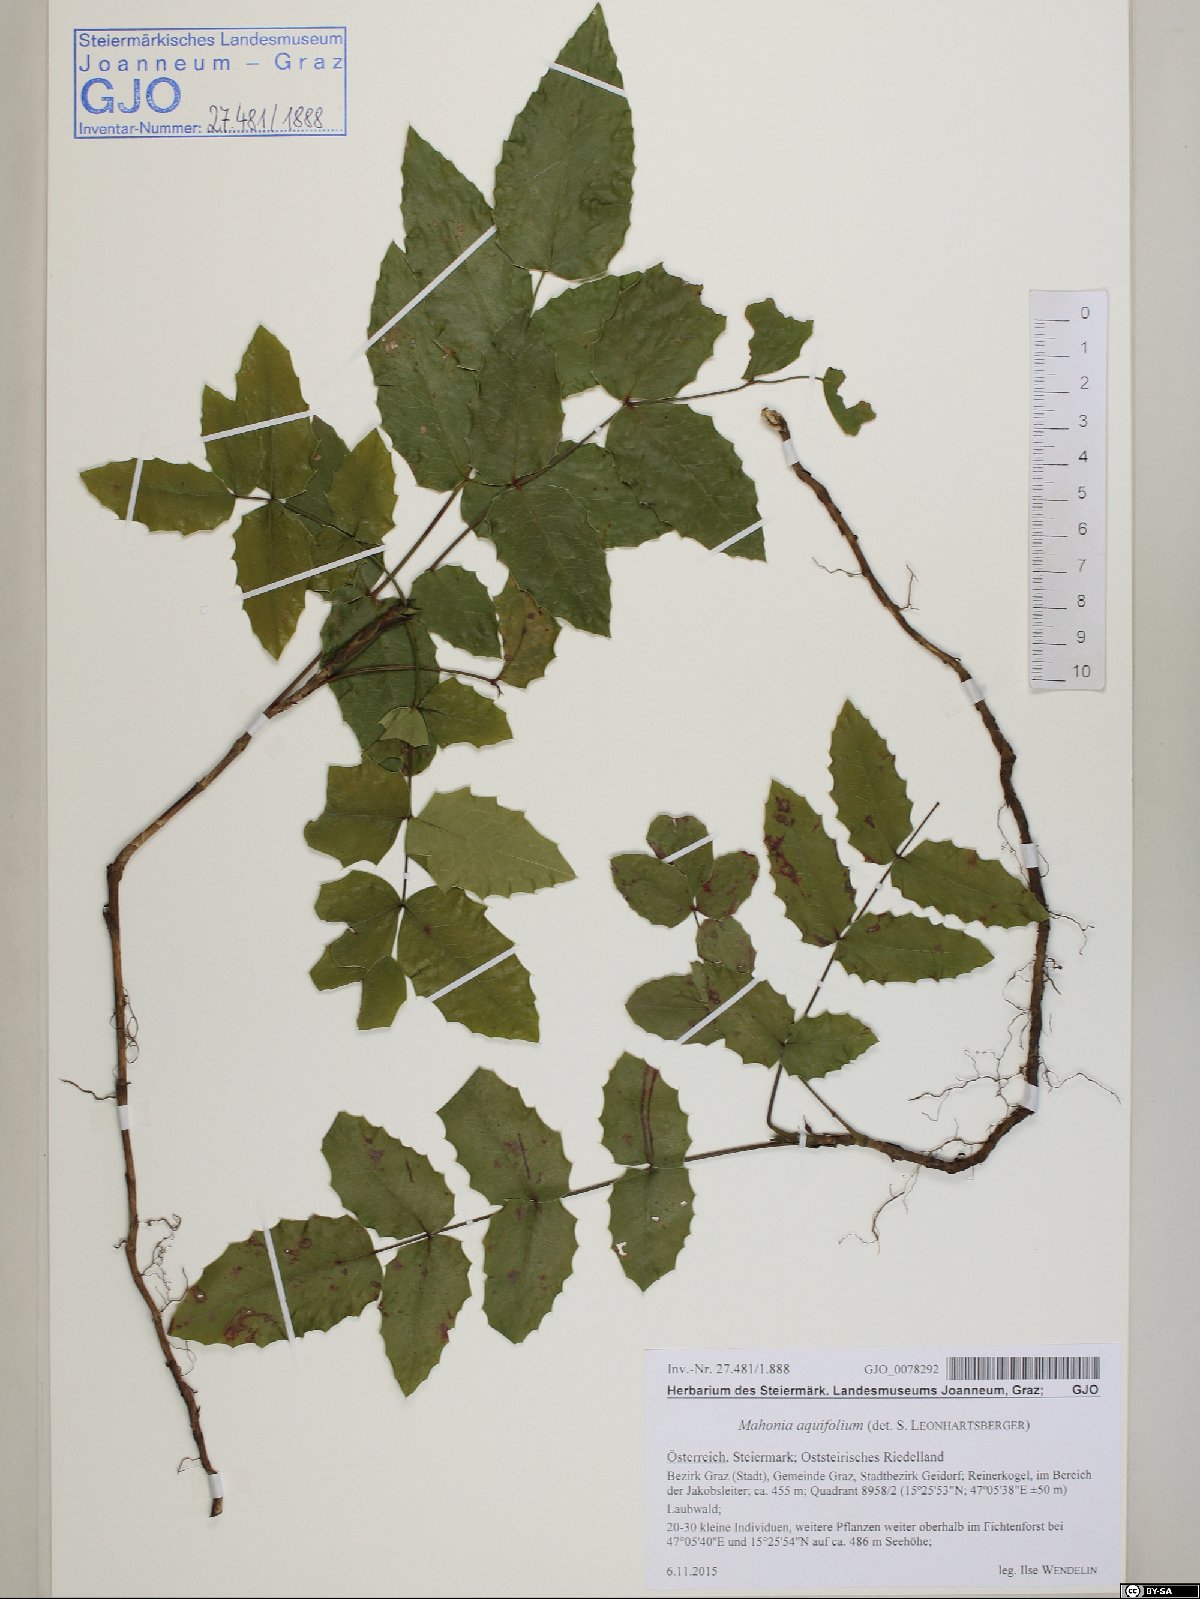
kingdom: Plantae
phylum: Tracheophyta
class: Magnoliopsida
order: Ranunculales
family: Berberidaceae
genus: Mahonia
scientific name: Mahonia aquifolium
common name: Oregon-grape
